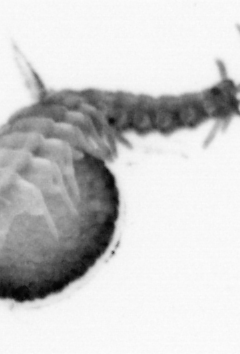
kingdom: Animalia
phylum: Annelida
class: Polychaeta
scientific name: Polychaeta
